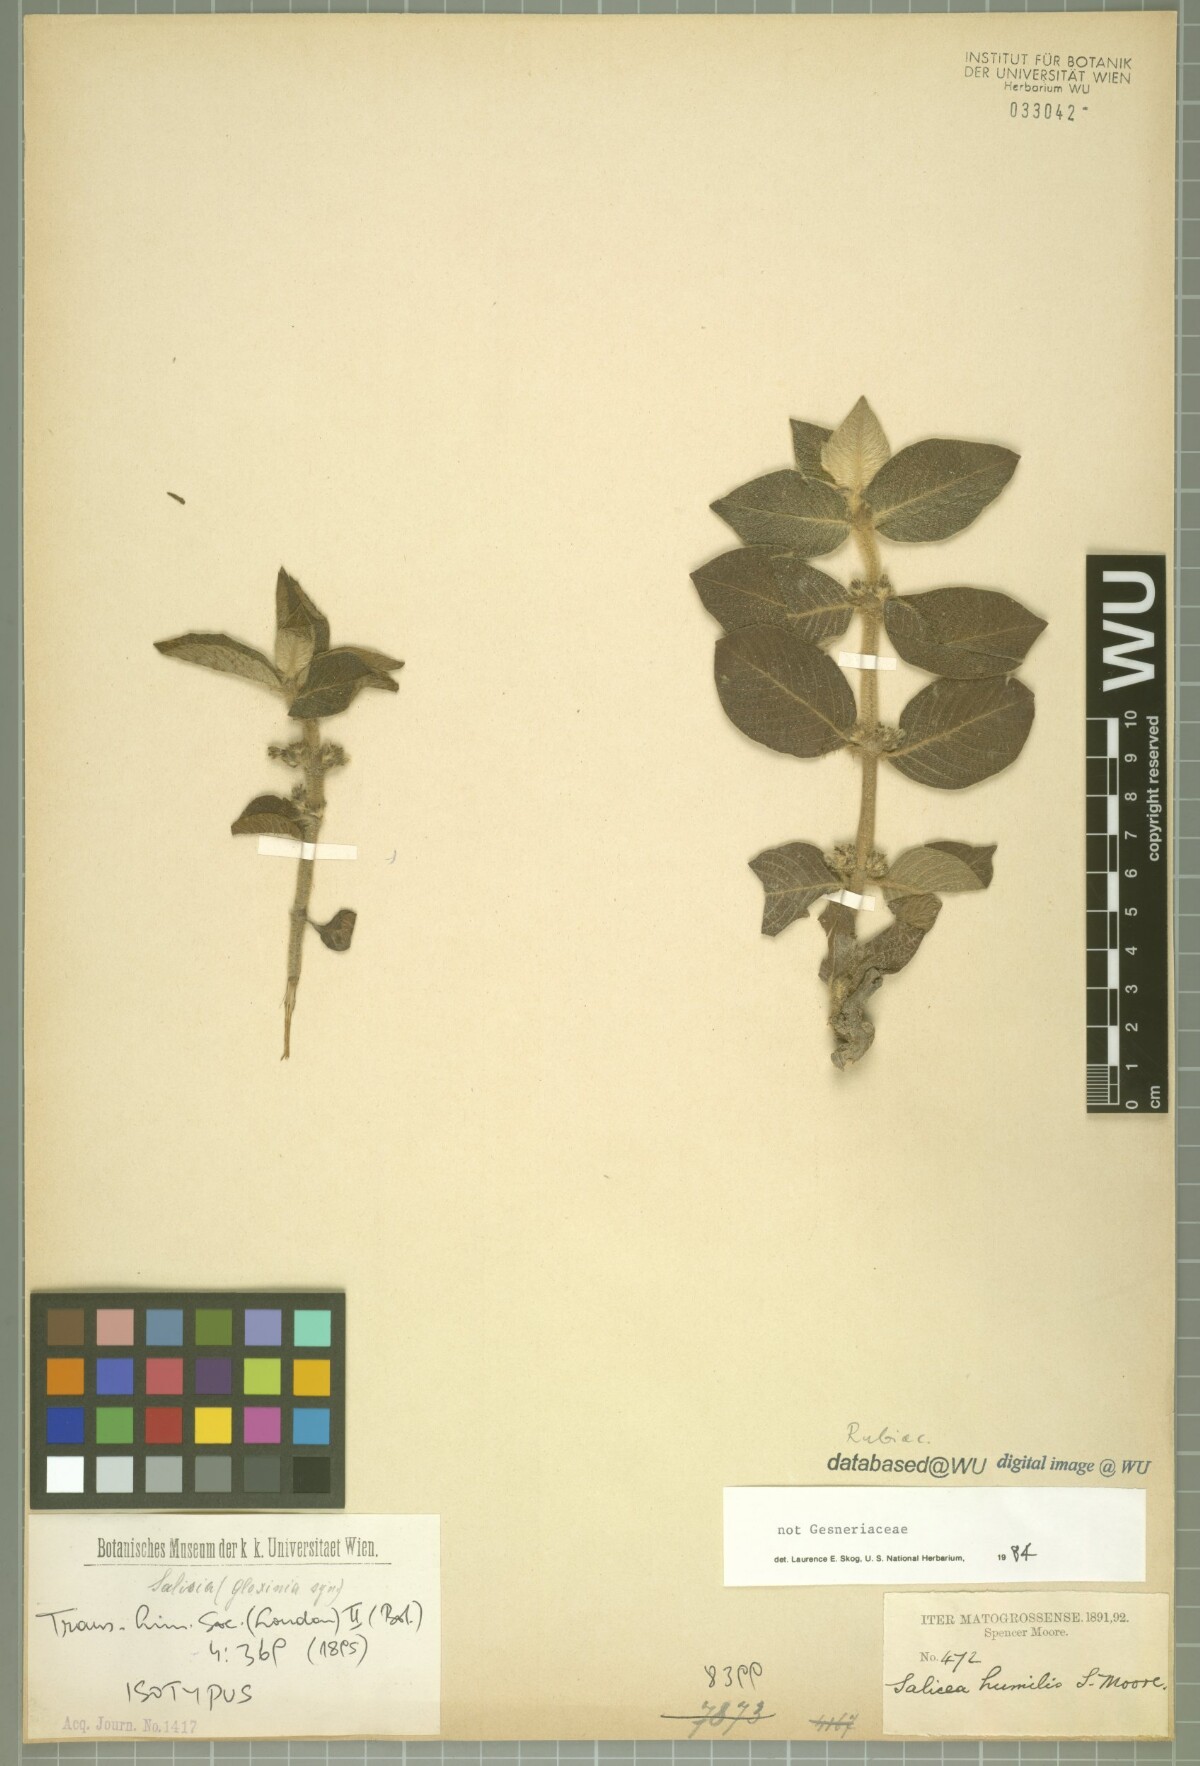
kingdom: Plantae
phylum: Tracheophyta
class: Magnoliopsida
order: Gentianales
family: Rubiaceae
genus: Sabicea
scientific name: Sabicea humilis
